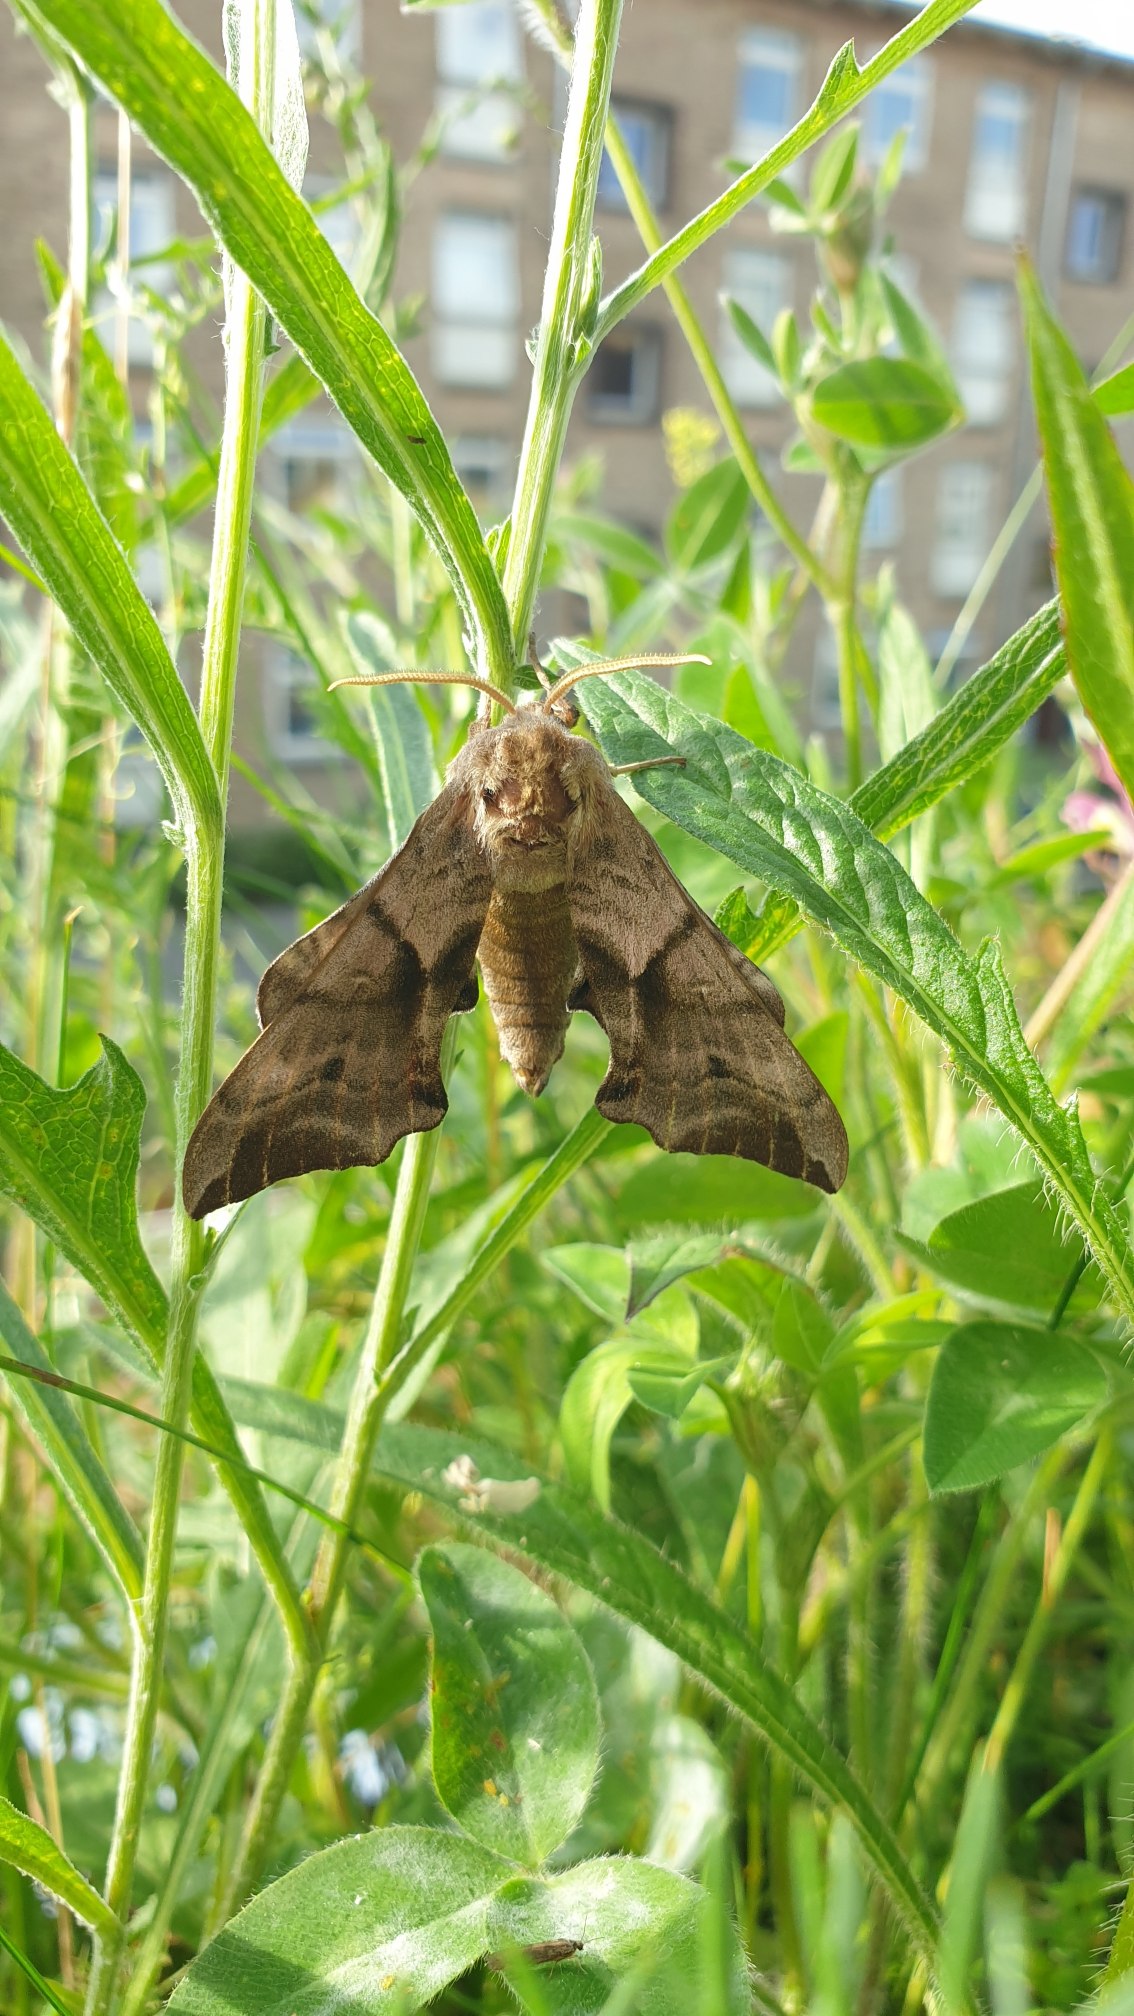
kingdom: Animalia
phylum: Arthropoda
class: Insecta
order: Lepidoptera
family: Sphingidae
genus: Smerinthus
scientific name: Smerinthus ocellata
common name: Aftenpåfugleøje
